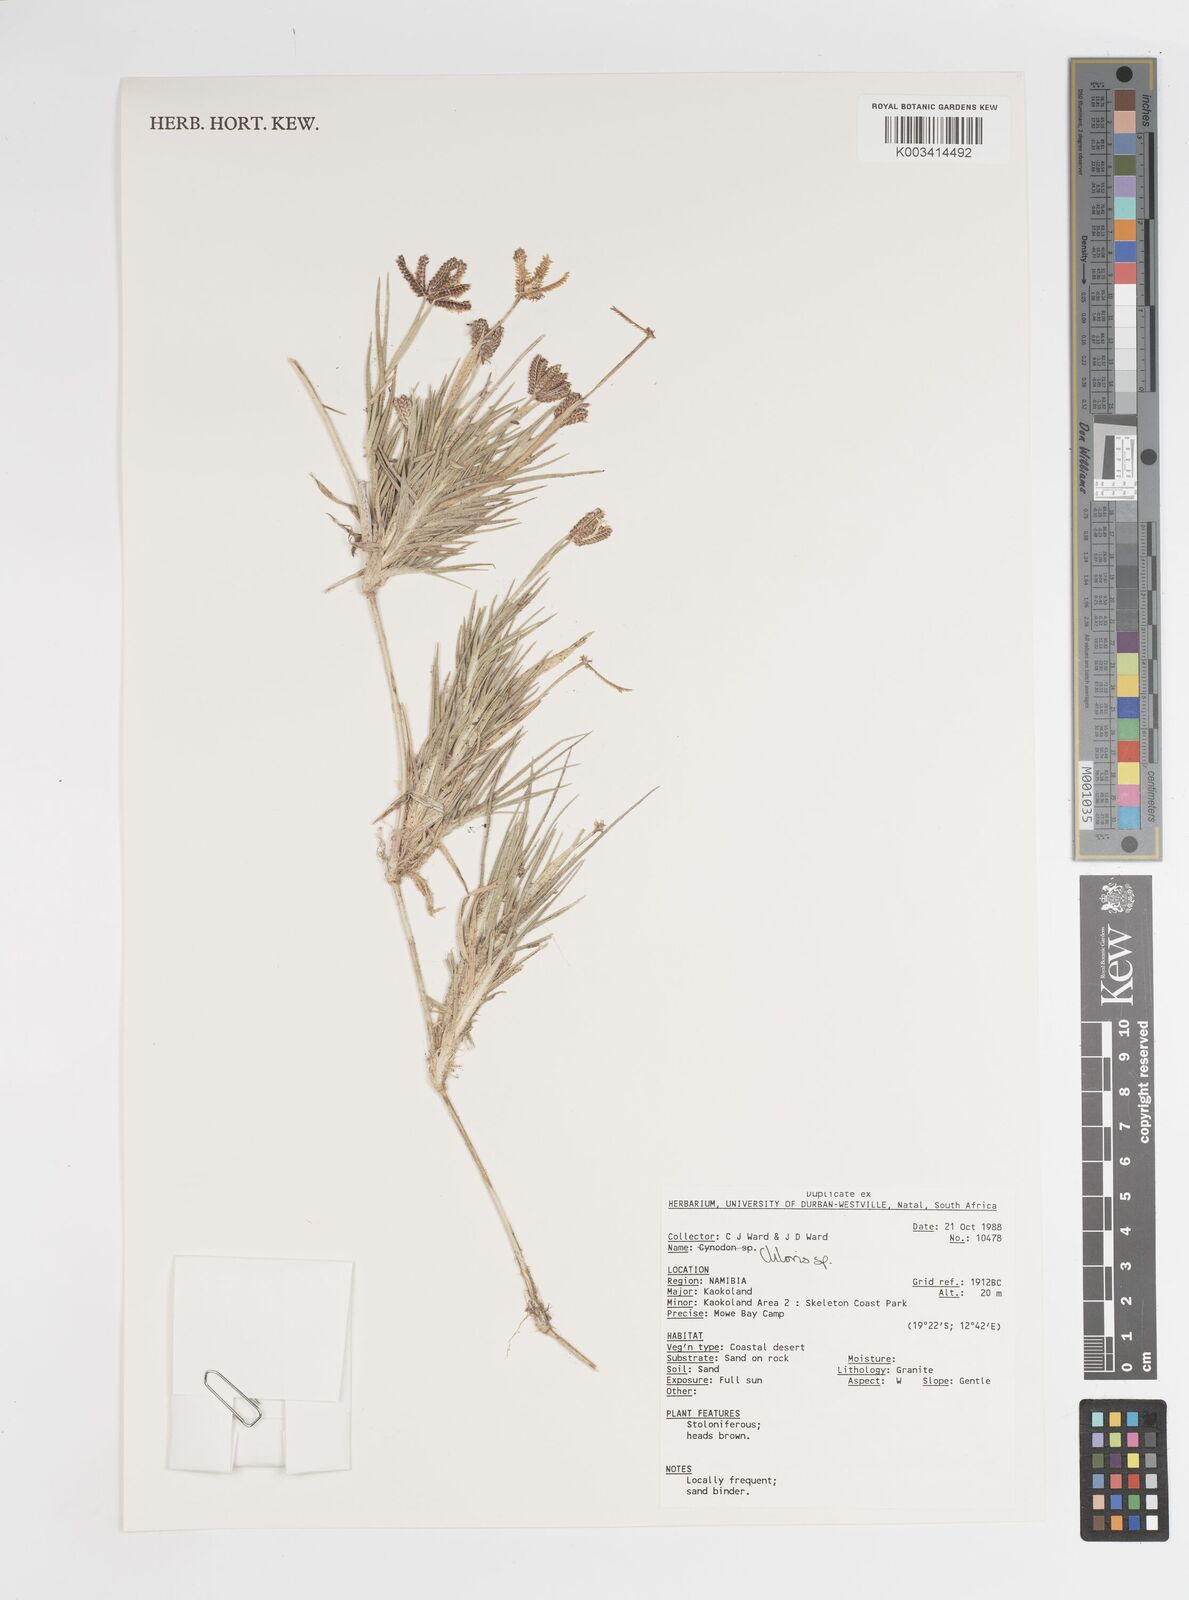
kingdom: Plantae
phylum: Tracheophyta
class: Liliopsida
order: Poales
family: Poaceae
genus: Chloris
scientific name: Chloris
